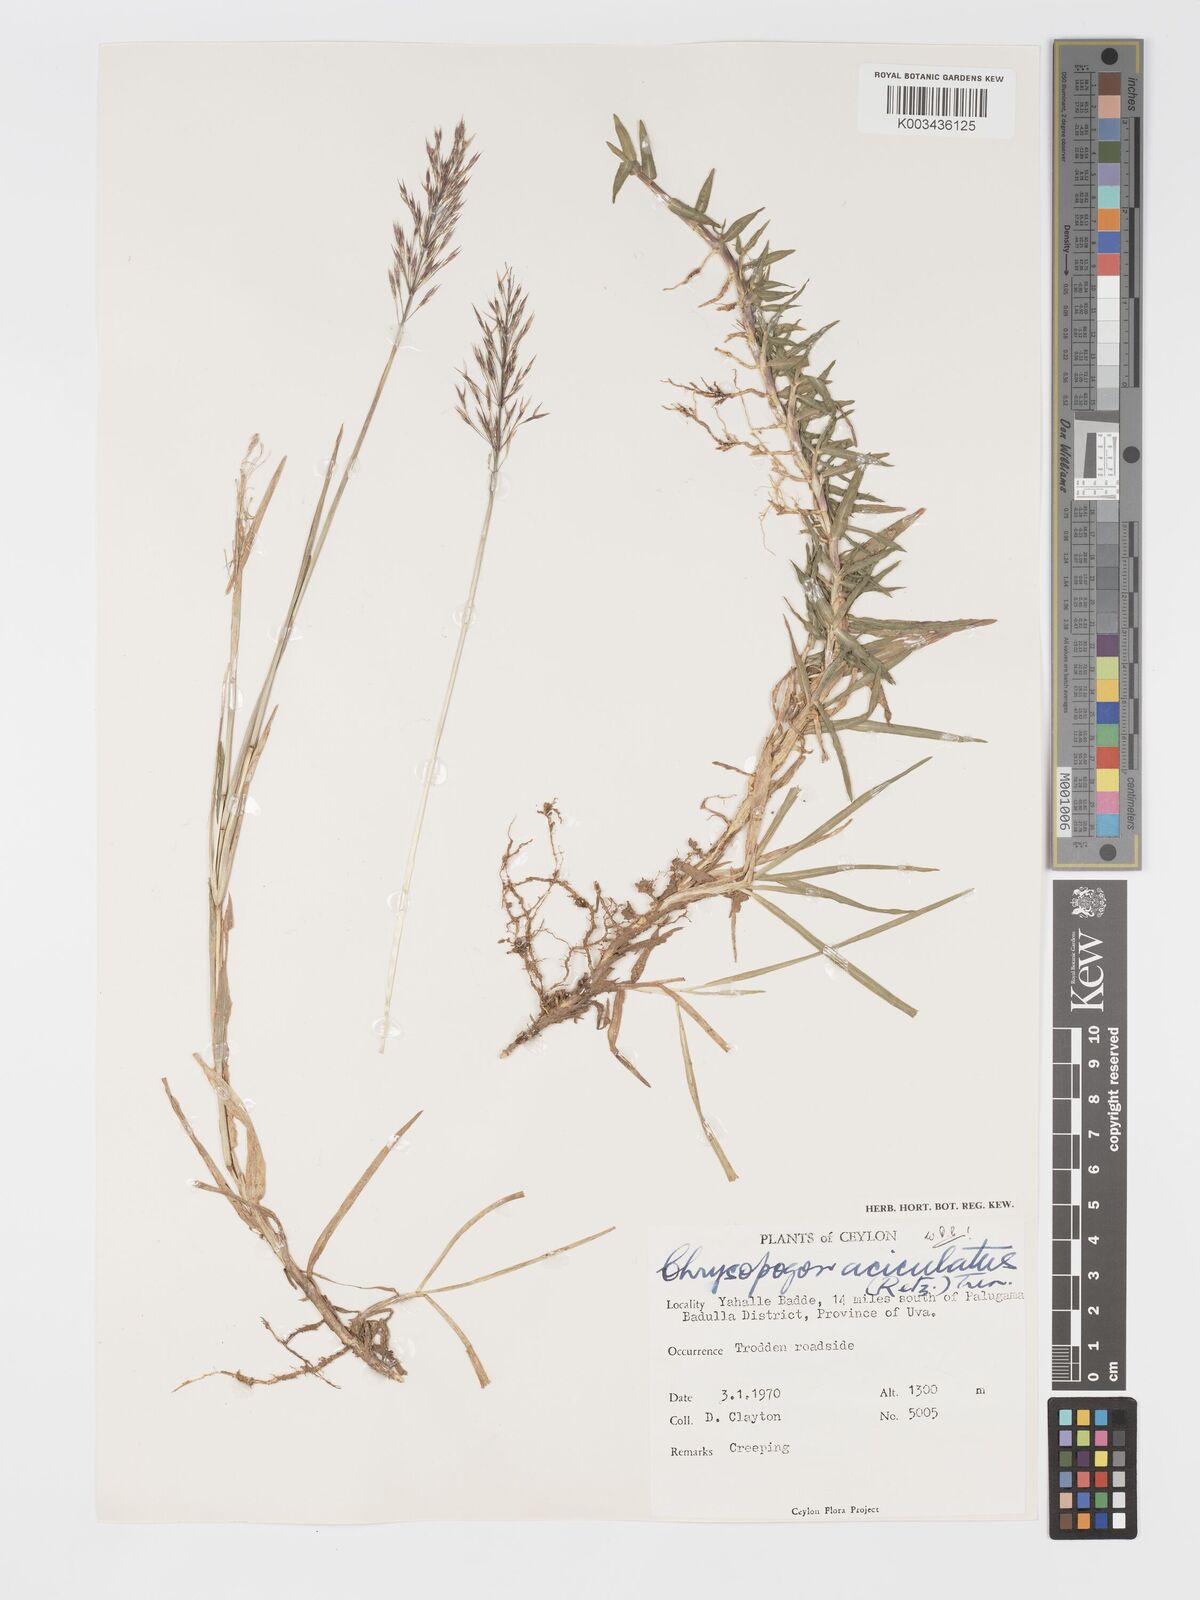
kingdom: Plantae
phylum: Tracheophyta
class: Liliopsida
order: Poales
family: Poaceae
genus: Chrysopogon
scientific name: Chrysopogon aciculatus
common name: Pilipiliula
